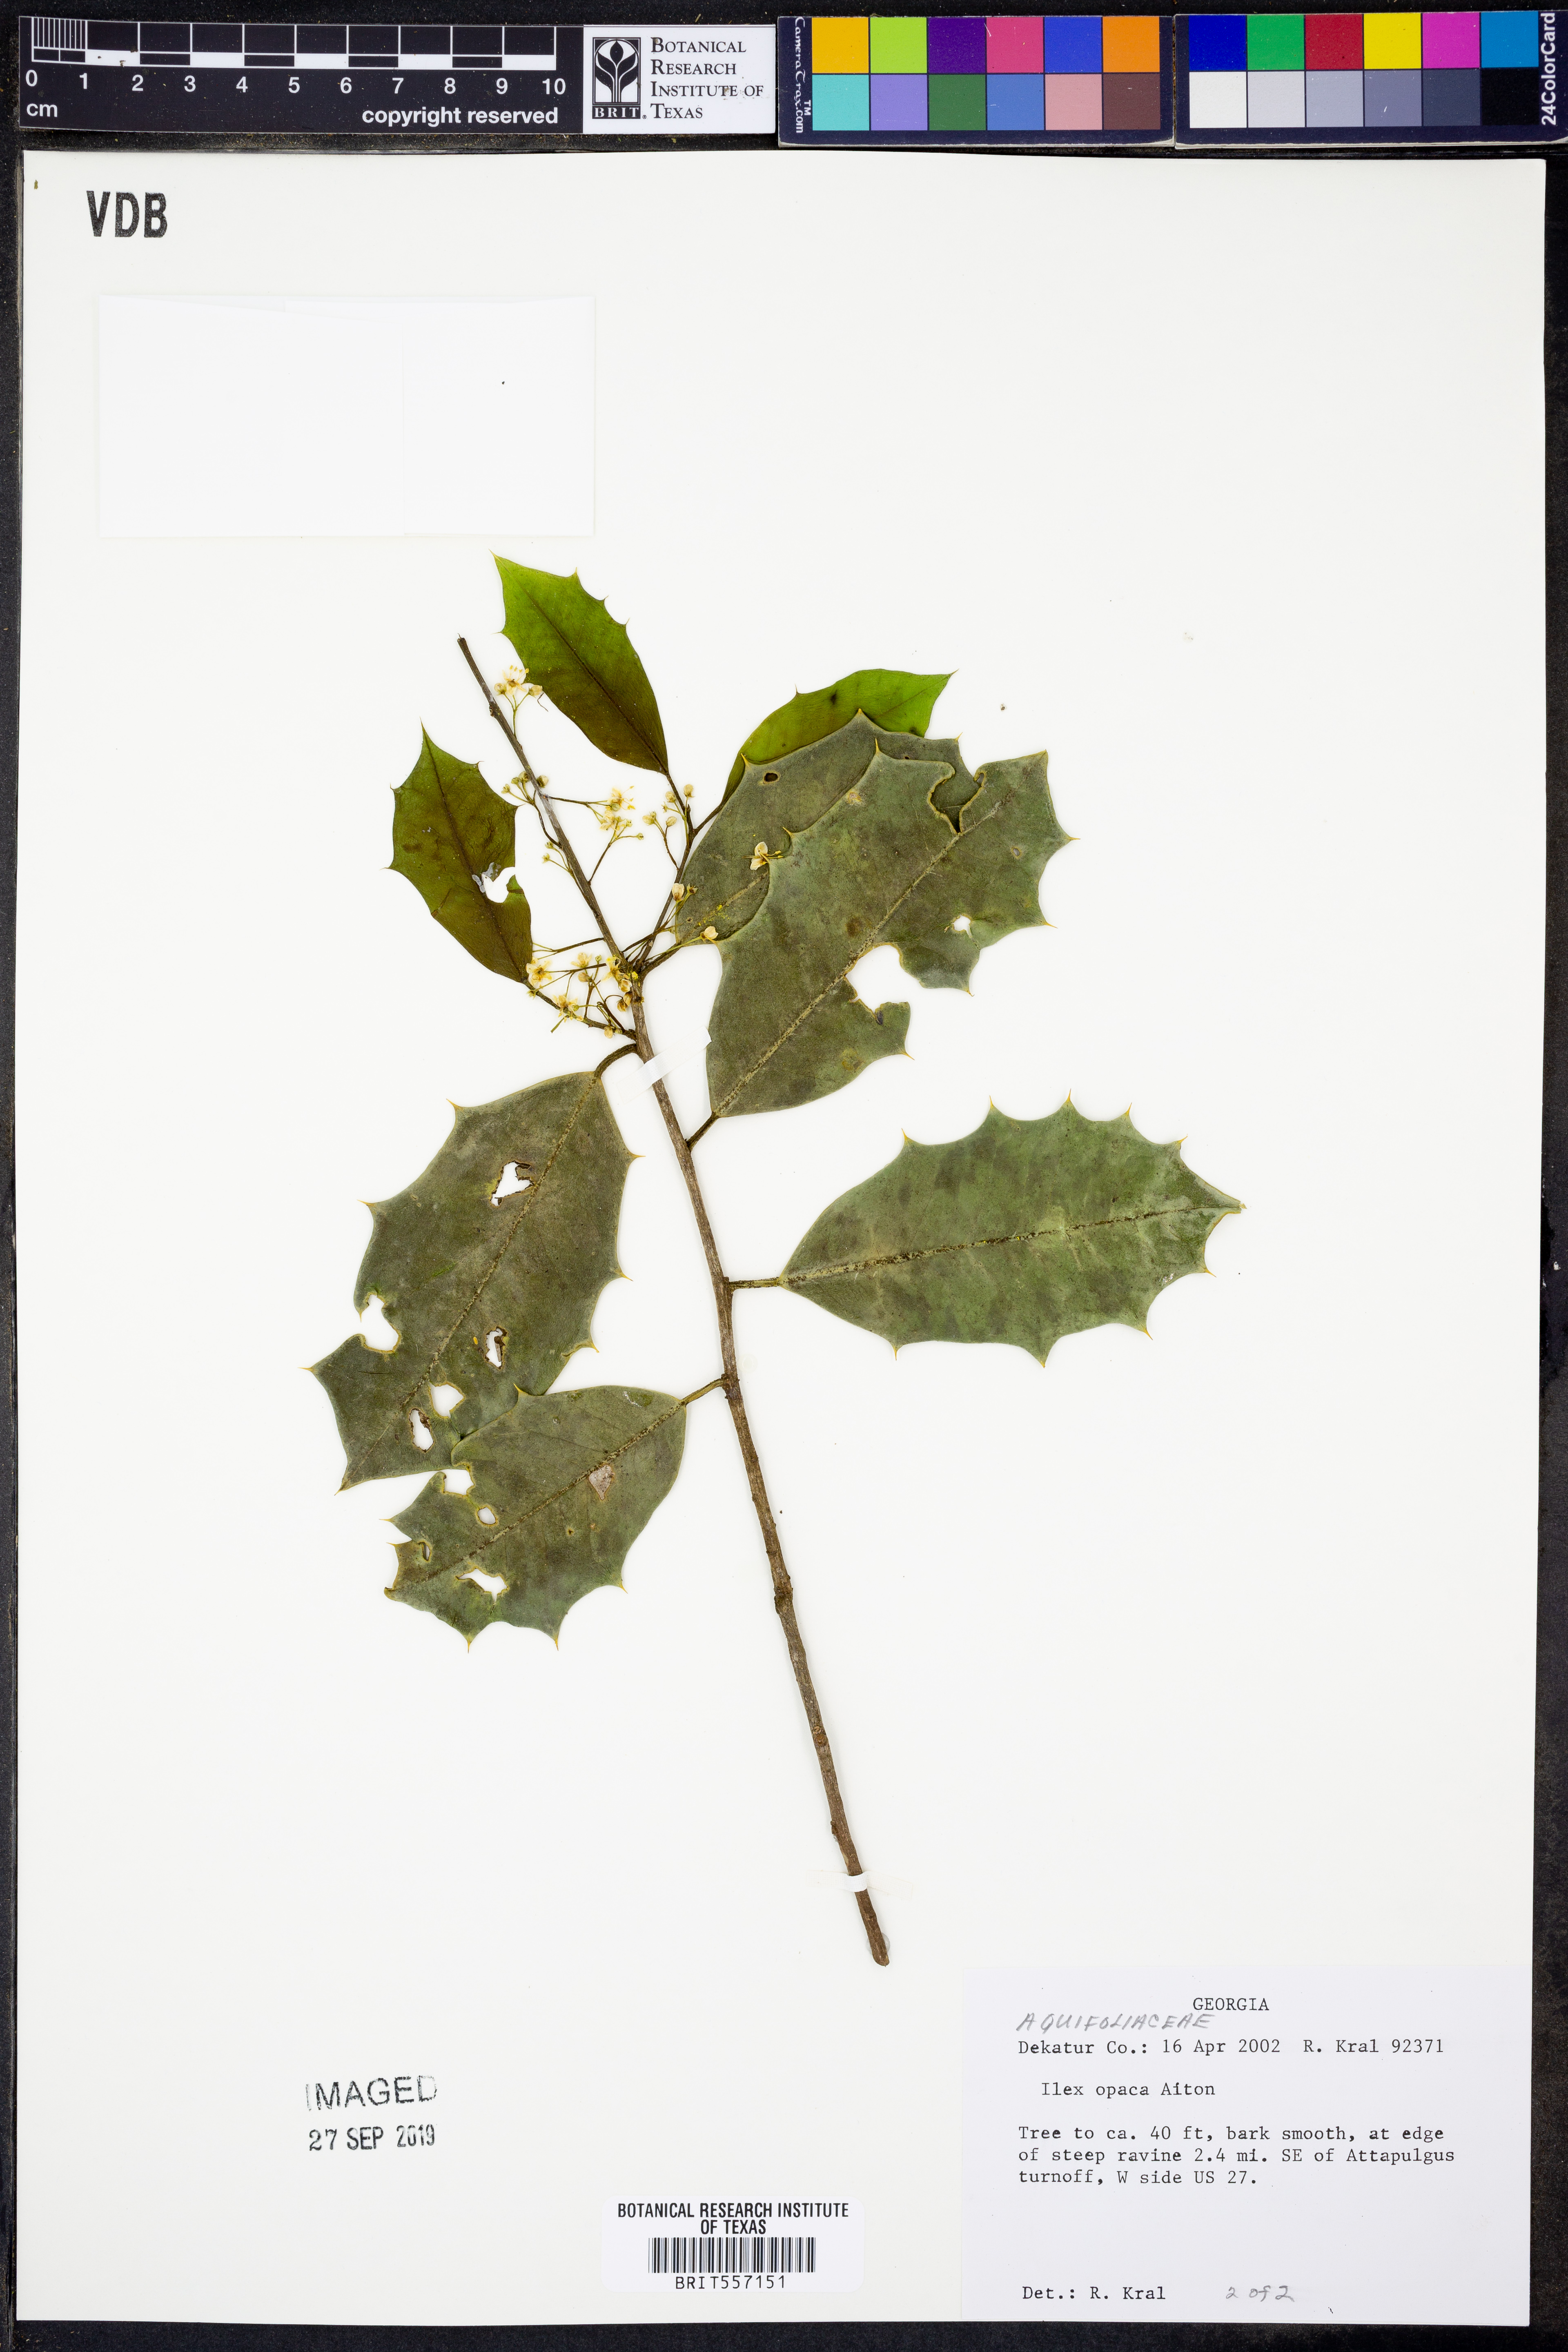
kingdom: Plantae
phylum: Tracheophyta
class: Magnoliopsida
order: Aquifoliales
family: Aquifoliaceae
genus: Ilex
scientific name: Ilex opaca
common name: American holly
